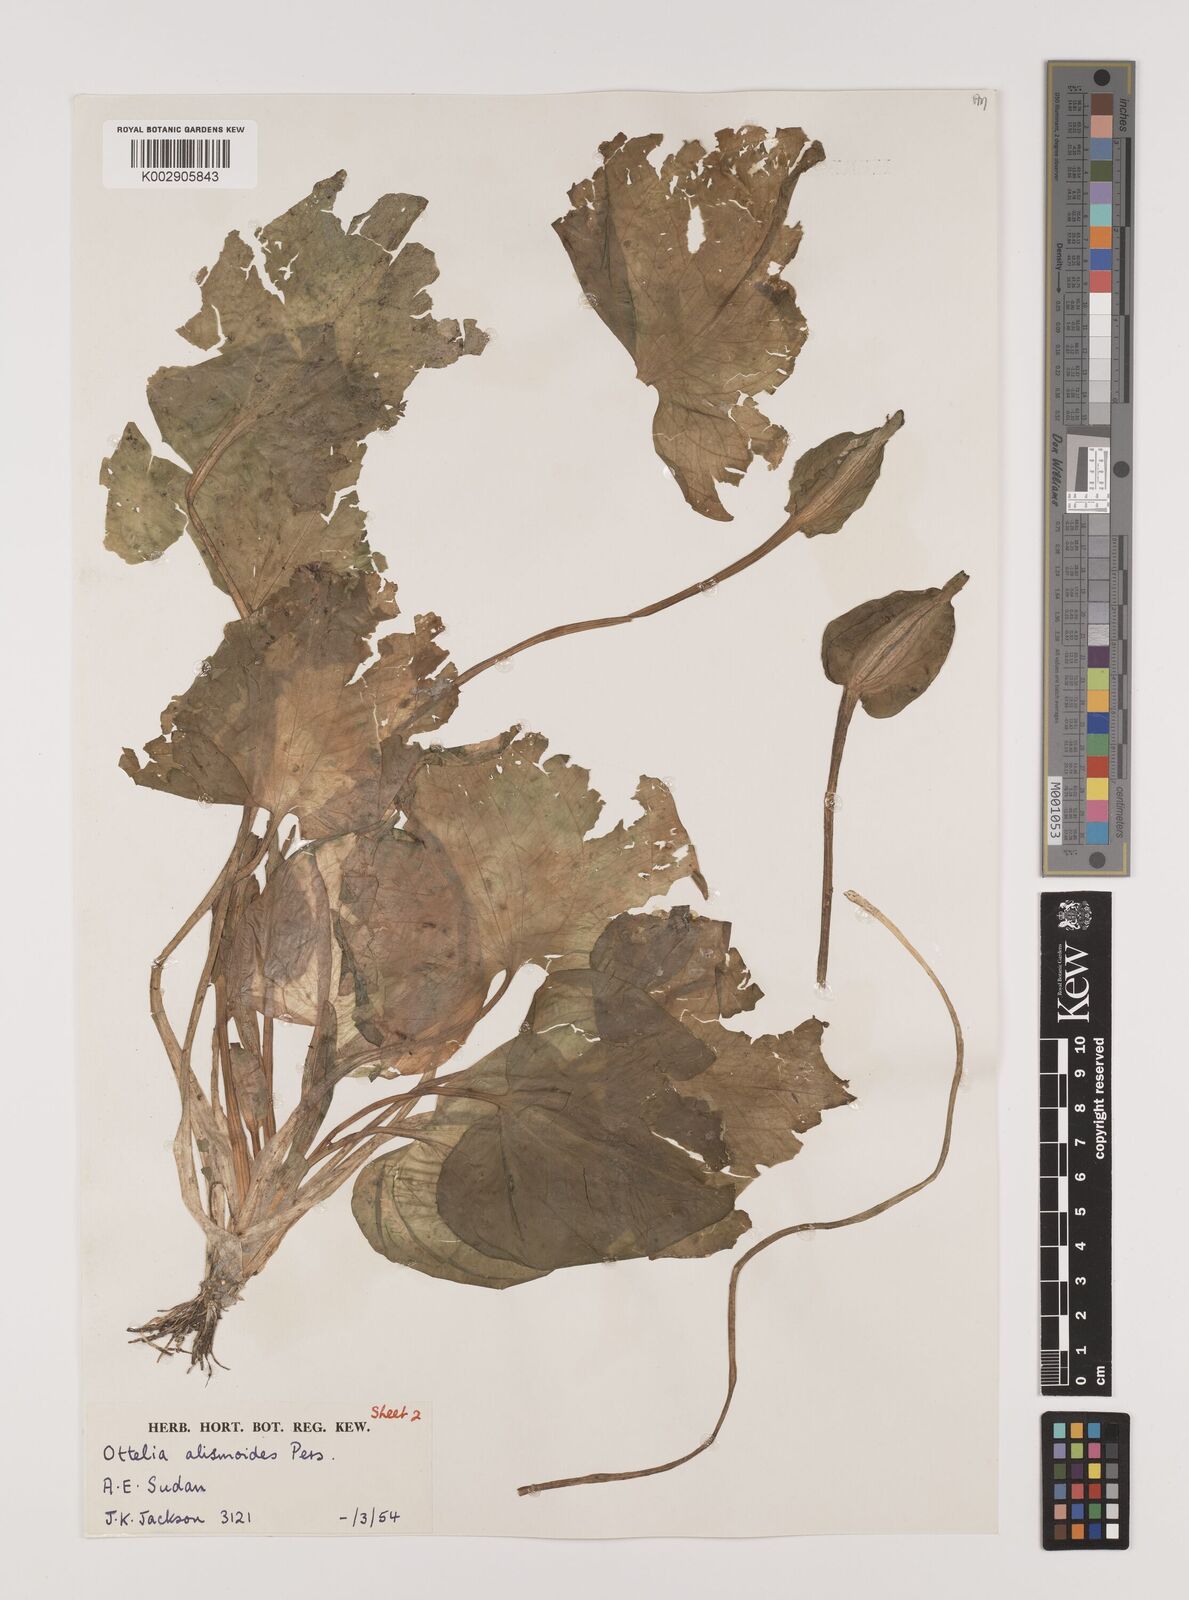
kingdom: Plantae
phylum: Tracheophyta
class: Liliopsida
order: Alismatales
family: Hydrocharitaceae
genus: Ottelia
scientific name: Ottelia alismoides
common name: Duck-lettuce
